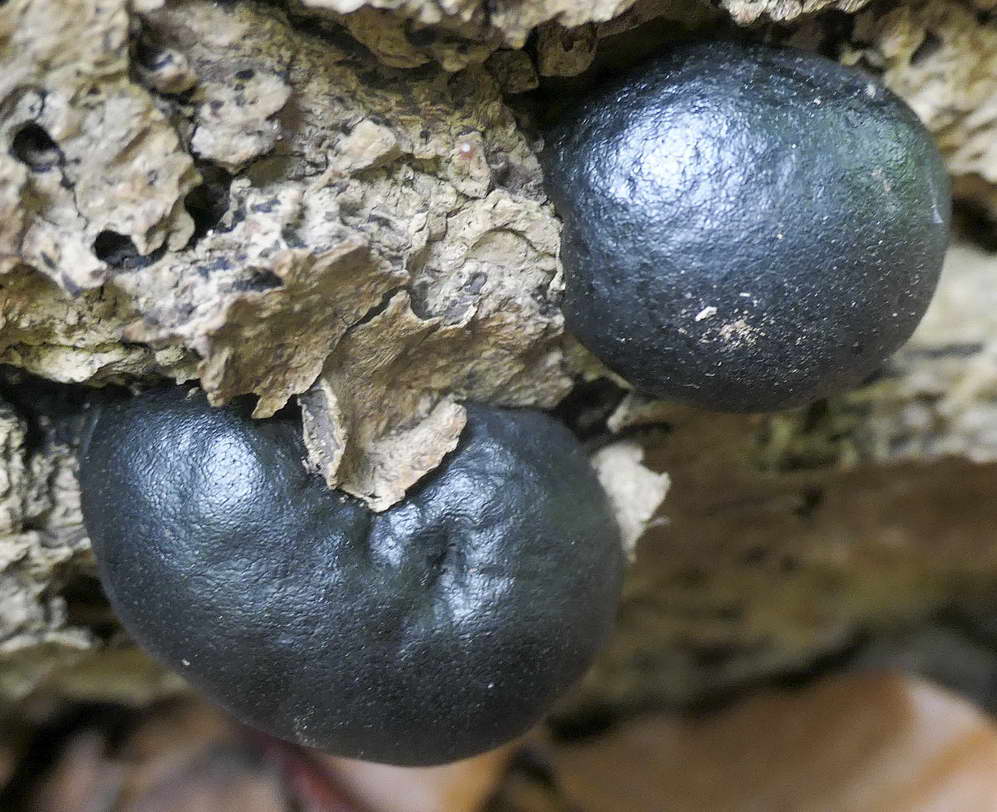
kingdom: Fungi
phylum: Ascomycota
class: Sordariomycetes
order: Xylariales
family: Hypoxylaceae
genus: Daldinia
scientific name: Daldinia concentrica
